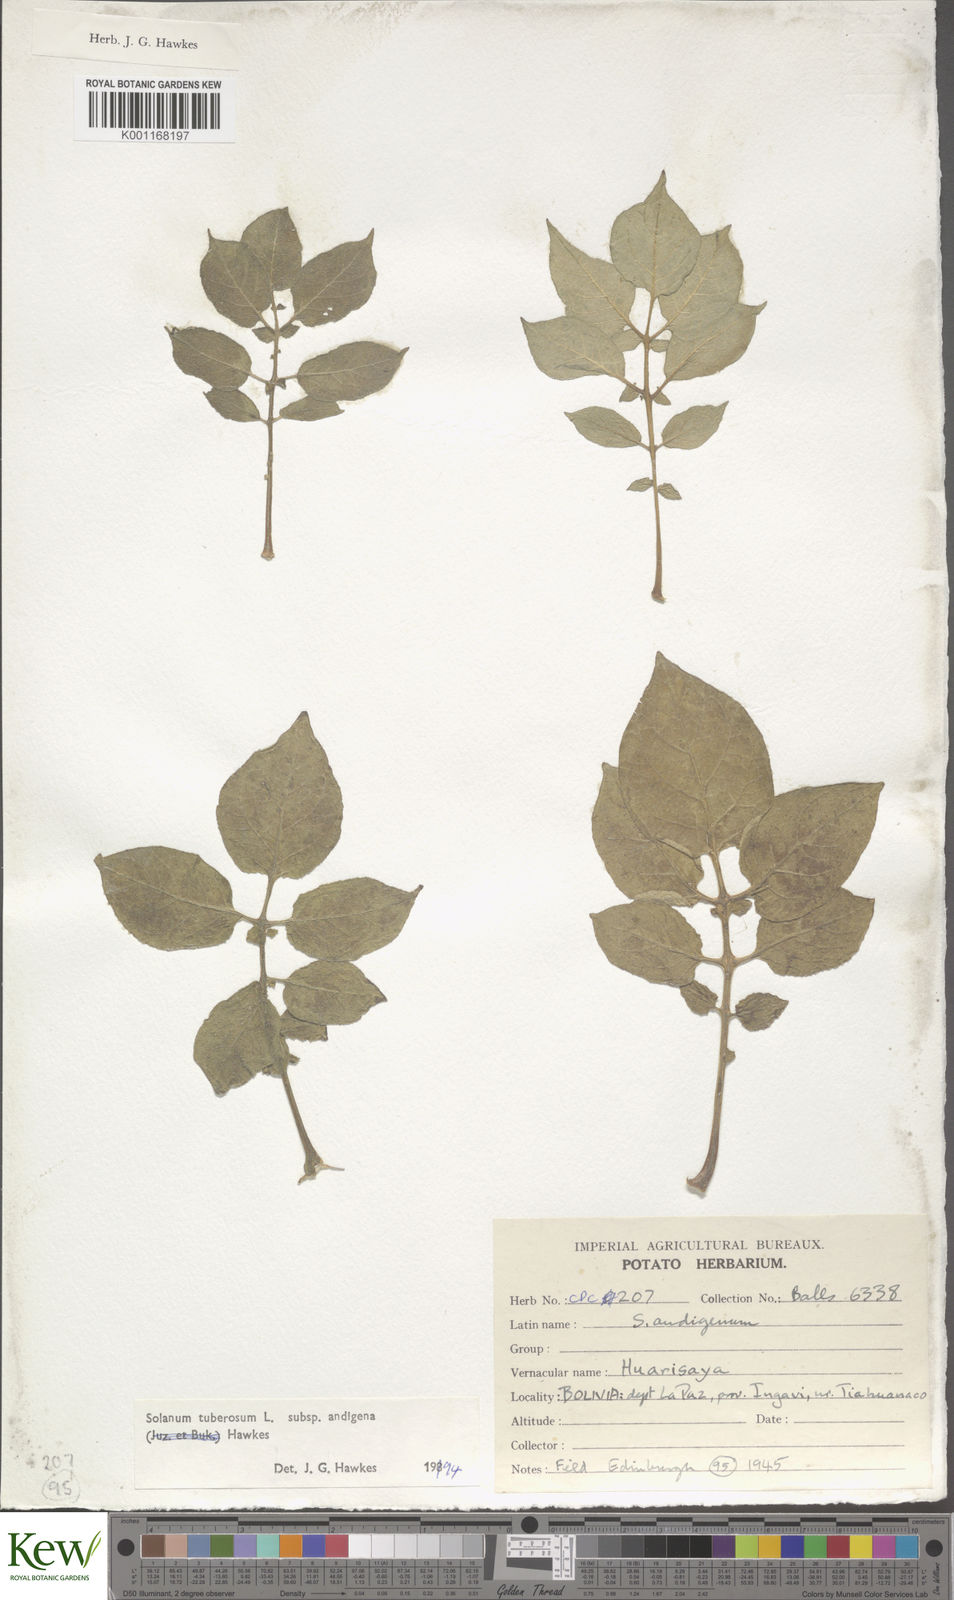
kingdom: Plantae
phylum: Tracheophyta
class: Magnoliopsida
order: Solanales
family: Solanaceae
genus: Solanum
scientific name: Solanum tuberosum
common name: Potato
